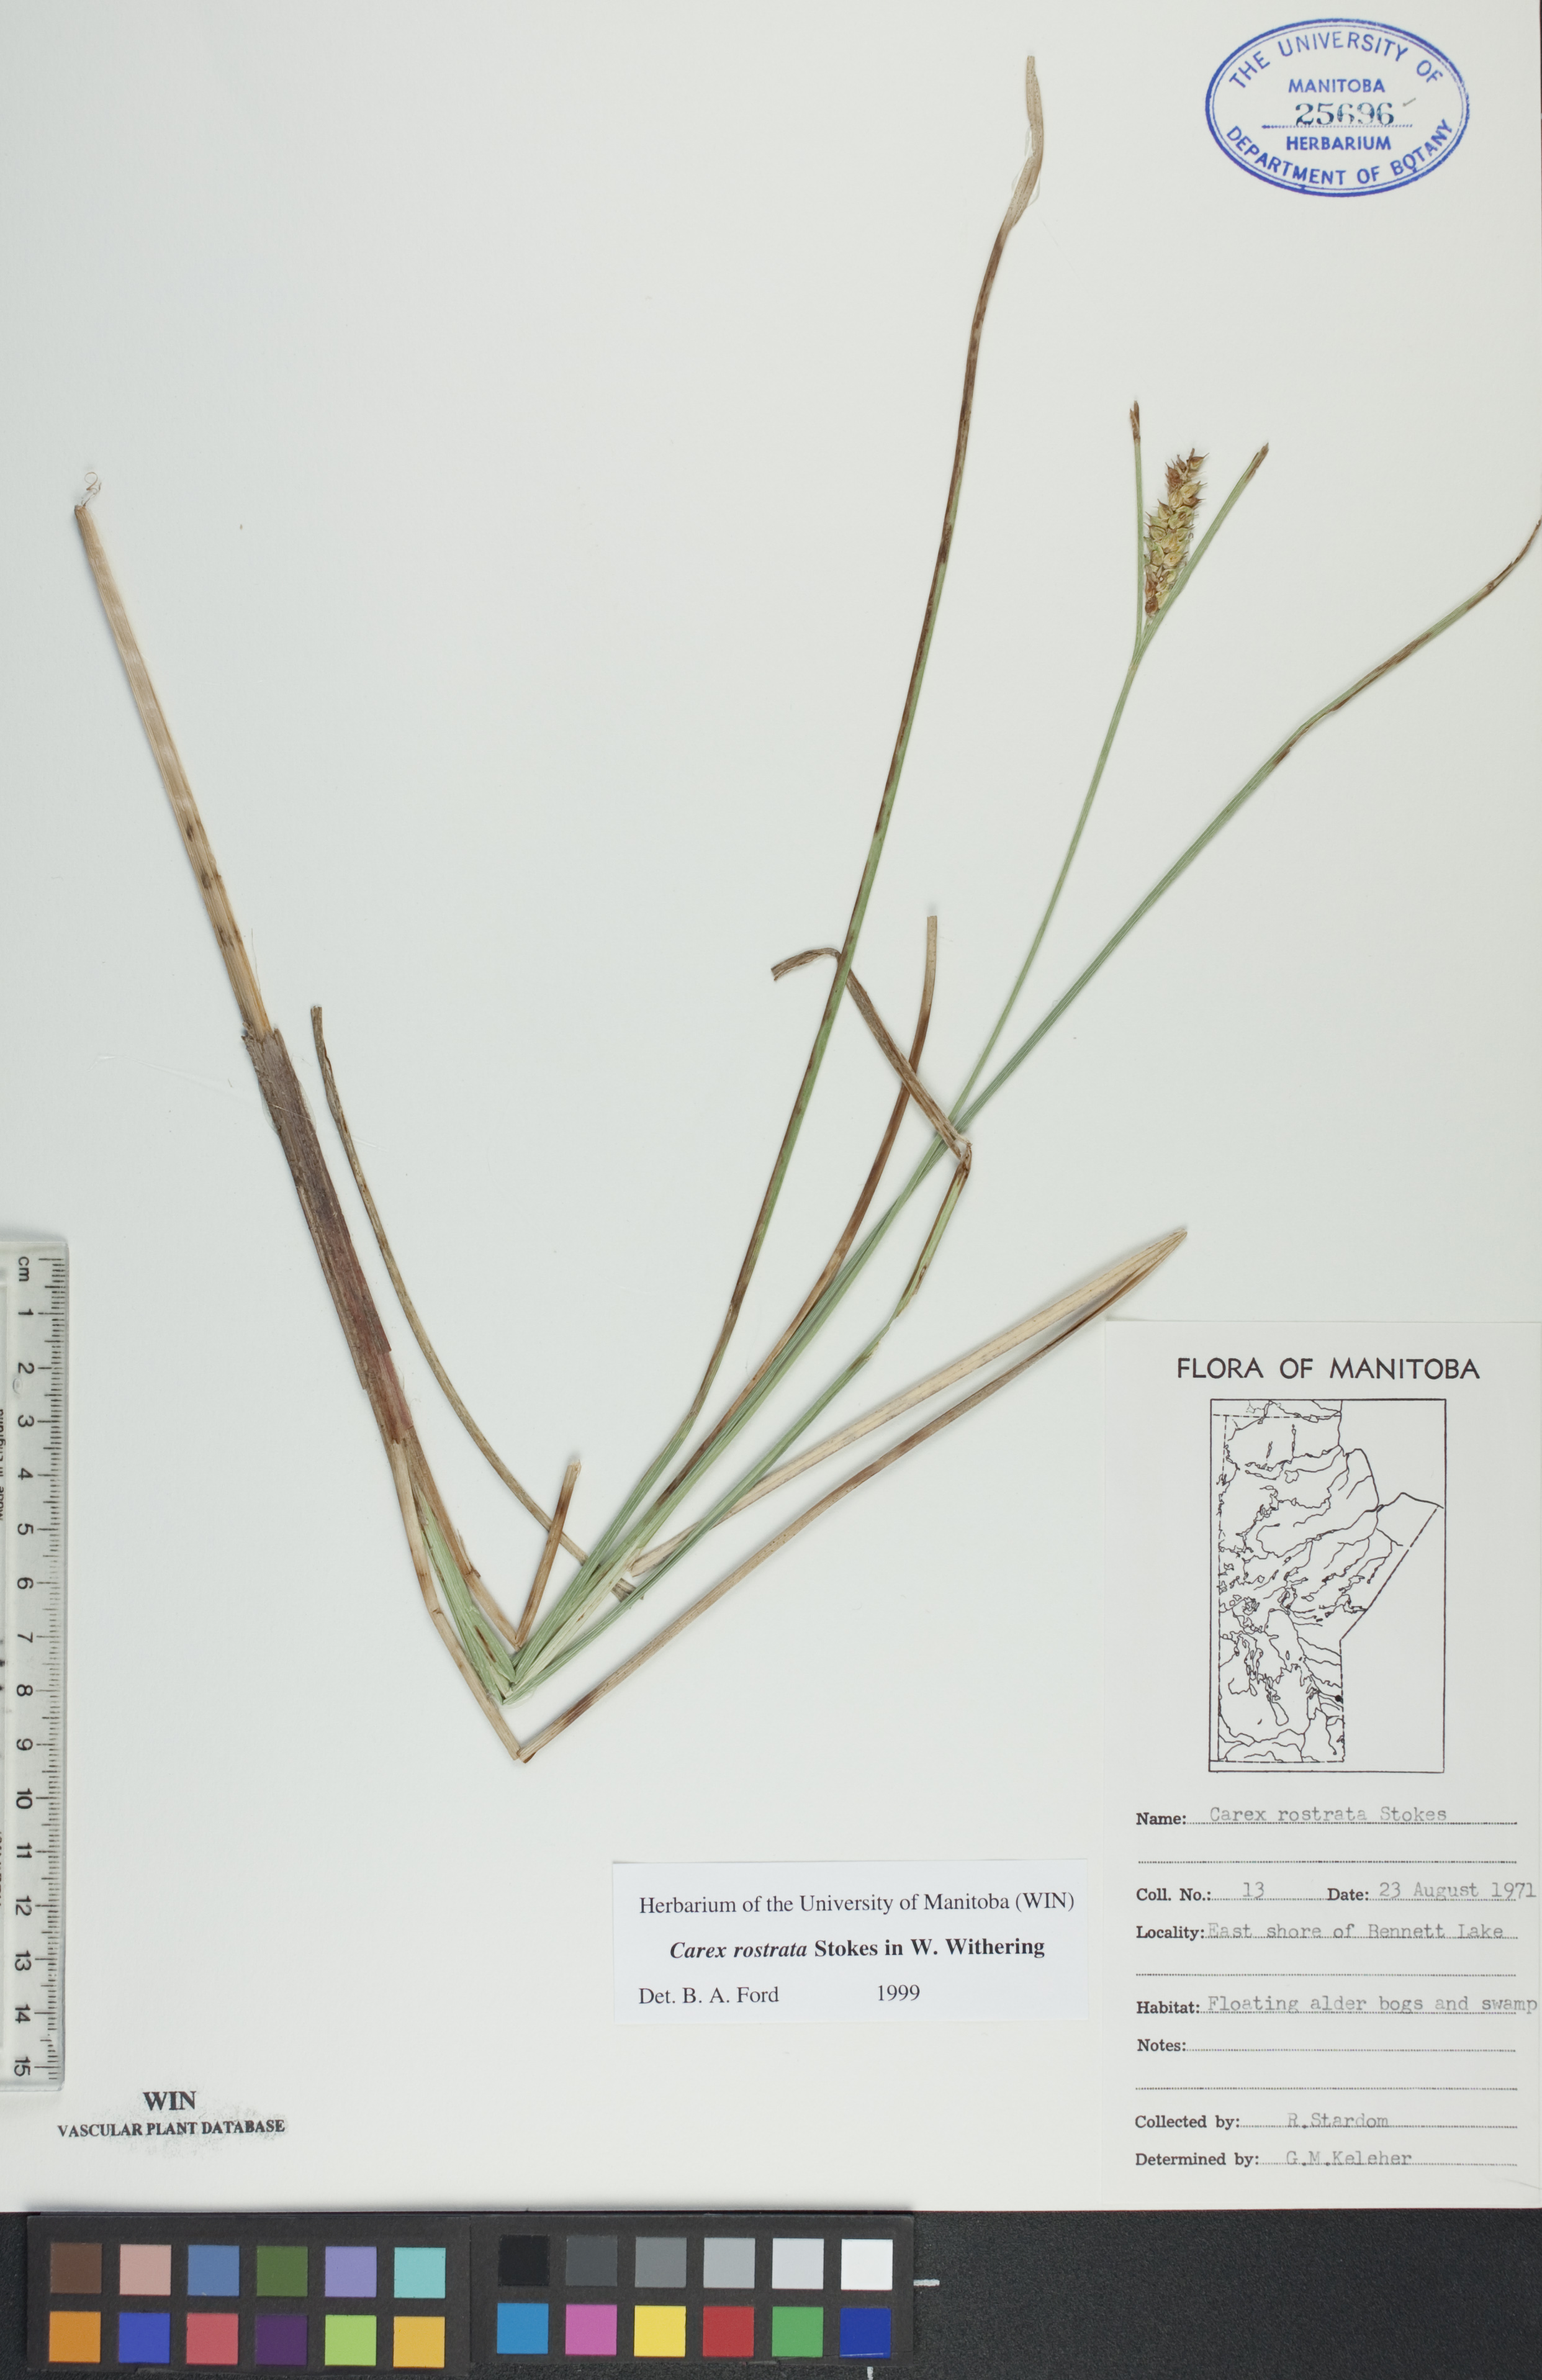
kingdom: Plantae
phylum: Tracheophyta
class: Liliopsida
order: Poales
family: Cyperaceae
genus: Carex
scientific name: Carex rostrata
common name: Bottle sedge
